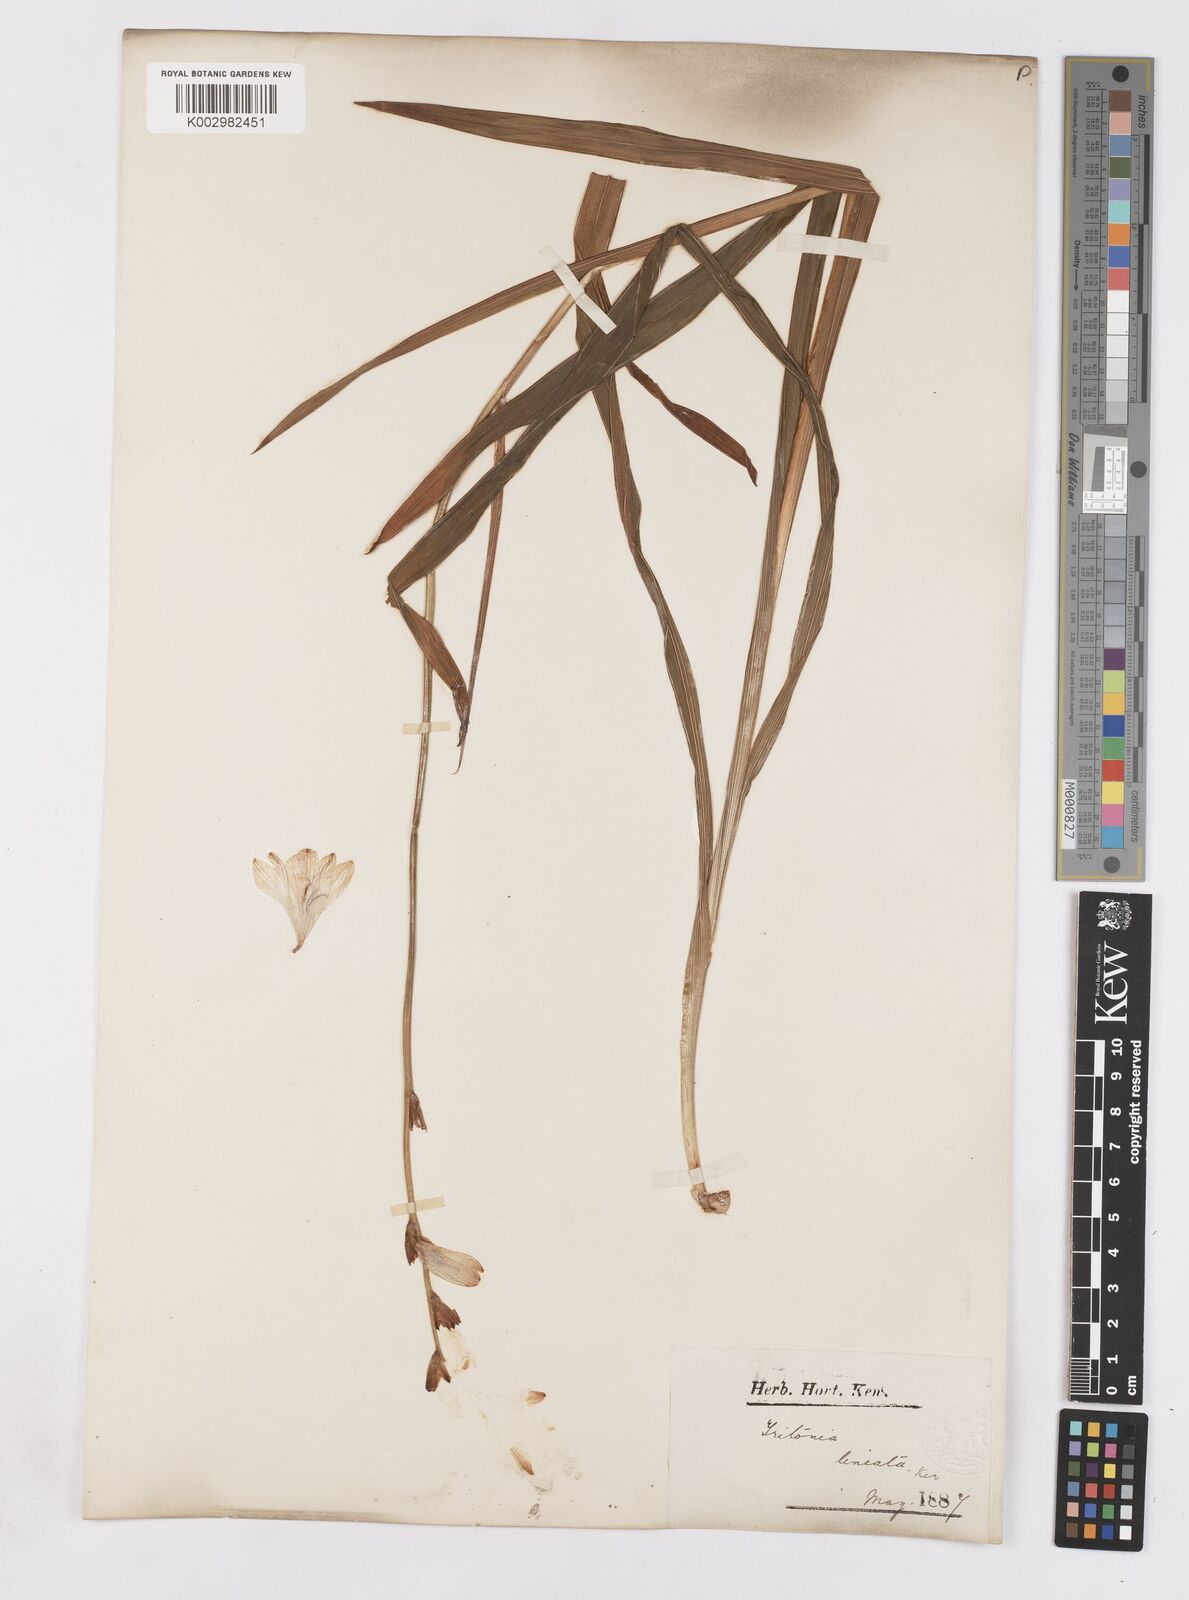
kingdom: Plantae
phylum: Tracheophyta
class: Liliopsida
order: Asparagales
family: Iridaceae
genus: Tritonia
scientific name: Tritonia gladiolaris
